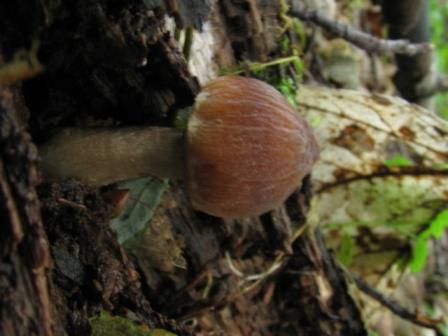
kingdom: Fungi
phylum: Basidiomycota
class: Agaricomycetes
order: Agaricales
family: Psathyrellaceae
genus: Psathyrella
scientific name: Psathyrella conica
